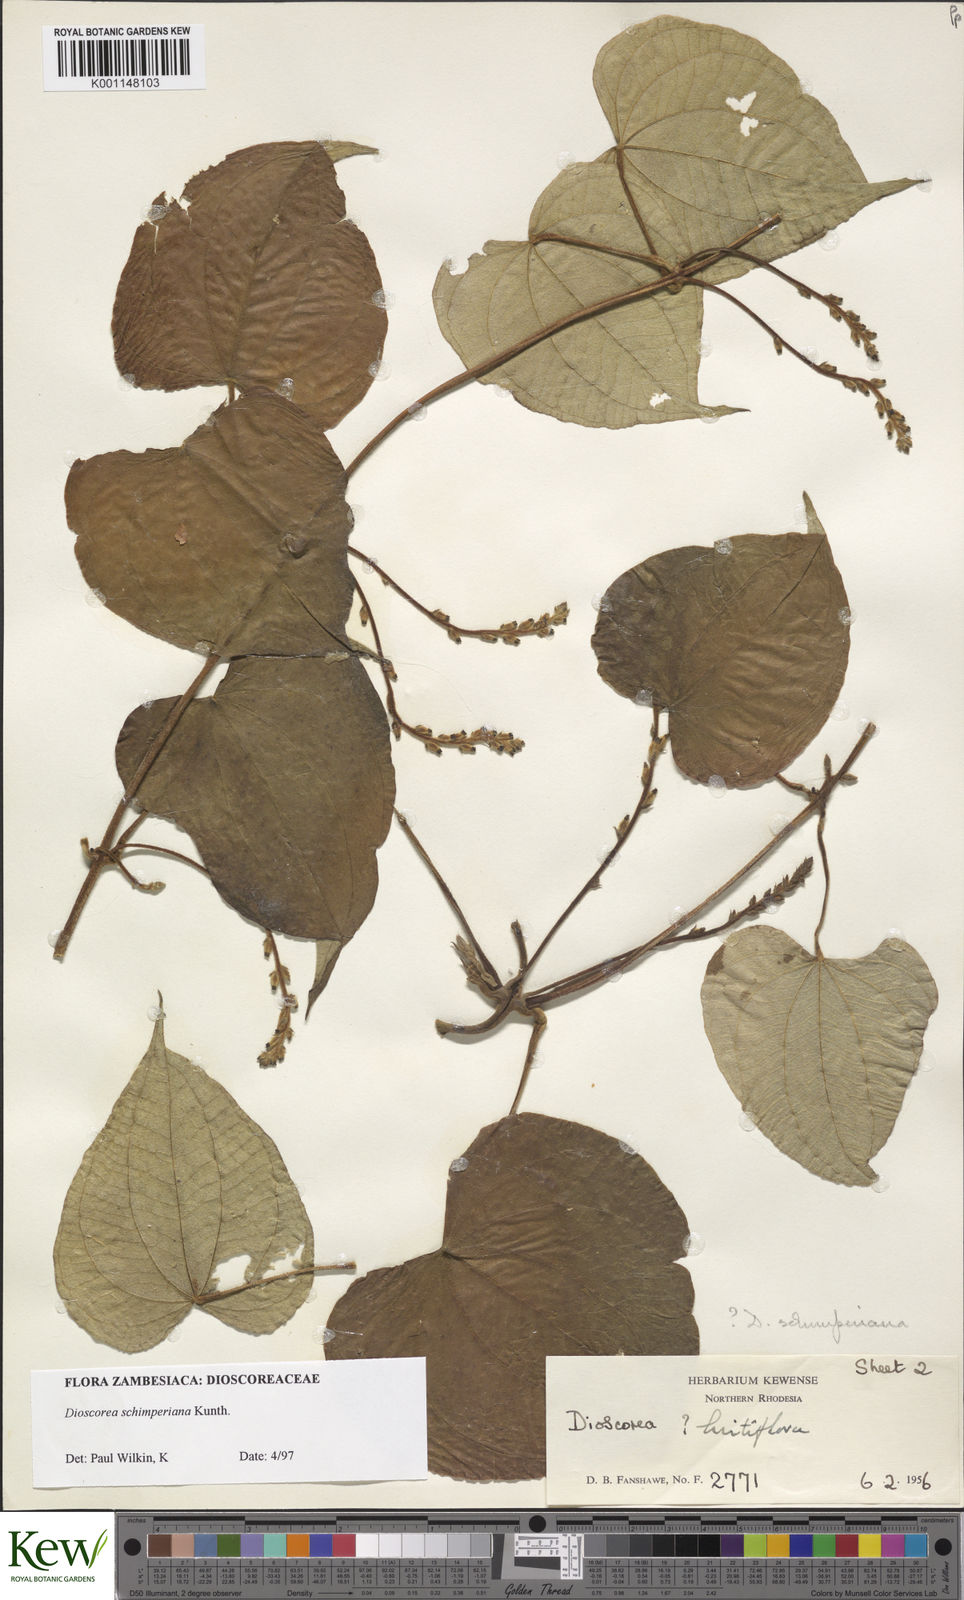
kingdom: Plantae
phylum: Tracheophyta
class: Liliopsida
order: Dioscoreales
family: Dioscoreaceae
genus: Dioscorea
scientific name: Dioscorea schimperiana
